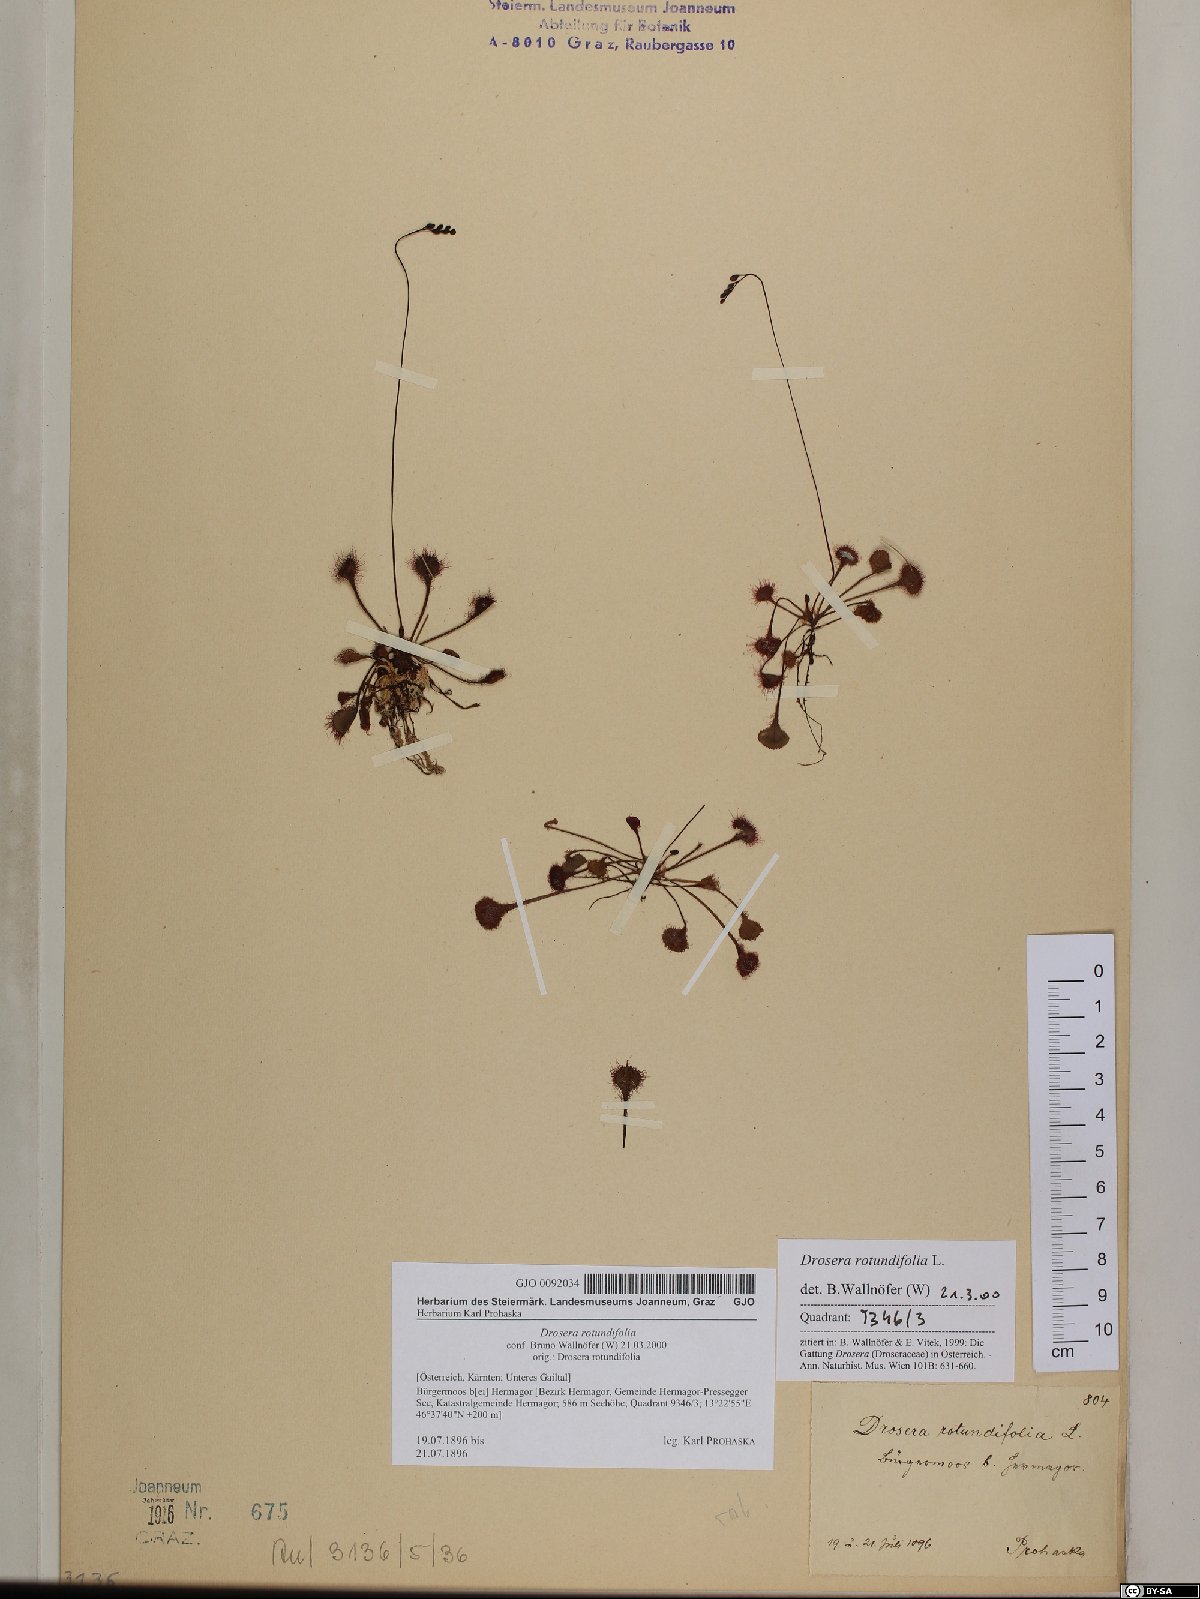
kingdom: Plantae
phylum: Tracheophyta
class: Magnoliopsida
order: Caryophyllales
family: Droseraceae
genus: Drosera
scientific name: Drosera rotundifolia
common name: Round-leaved sundew
